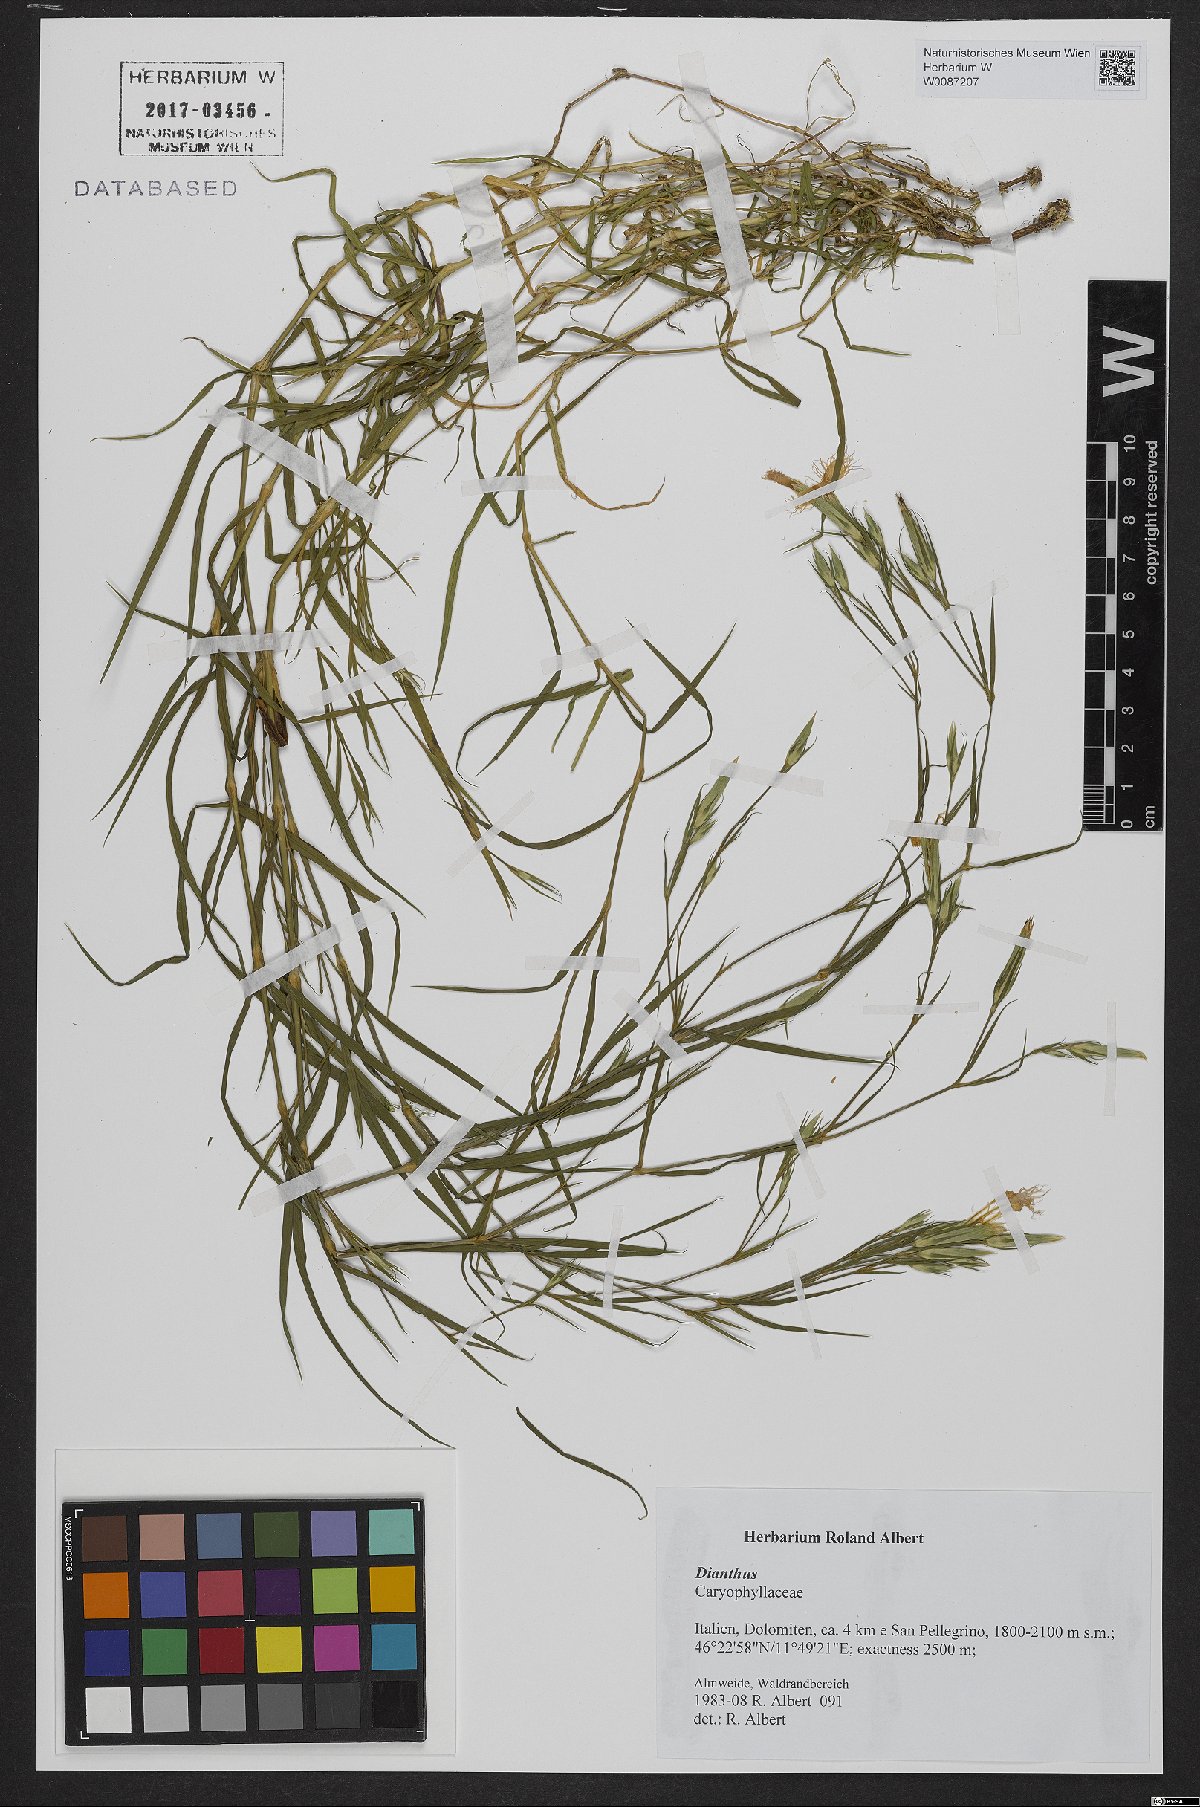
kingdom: Plantae
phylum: Tracheophyta
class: Magnoliopsida
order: Caryophyllales
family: Caryophyllaceae
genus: Dianthus
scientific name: Dianthus
